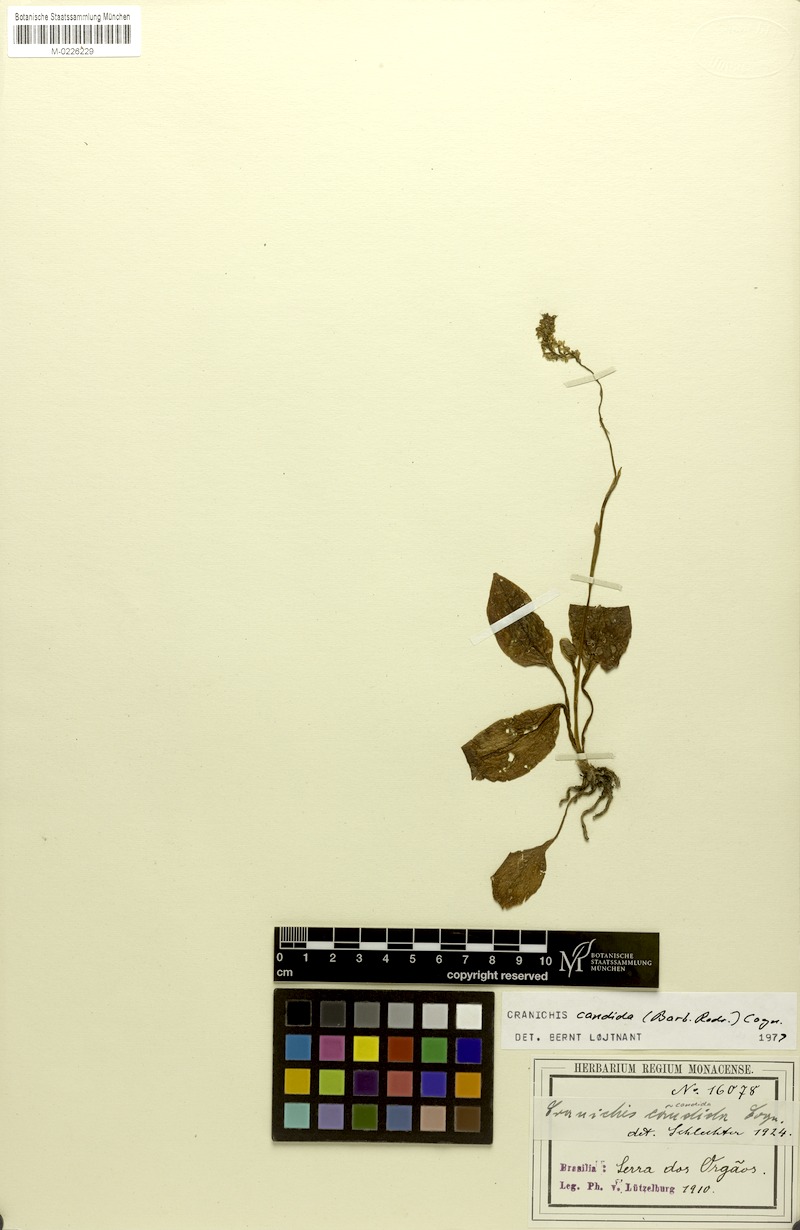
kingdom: Plantae
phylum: Tracheophyta
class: Liliopsida
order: Asparagales
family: Orchidaceae
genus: Cranichis
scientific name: Cranichis candida
